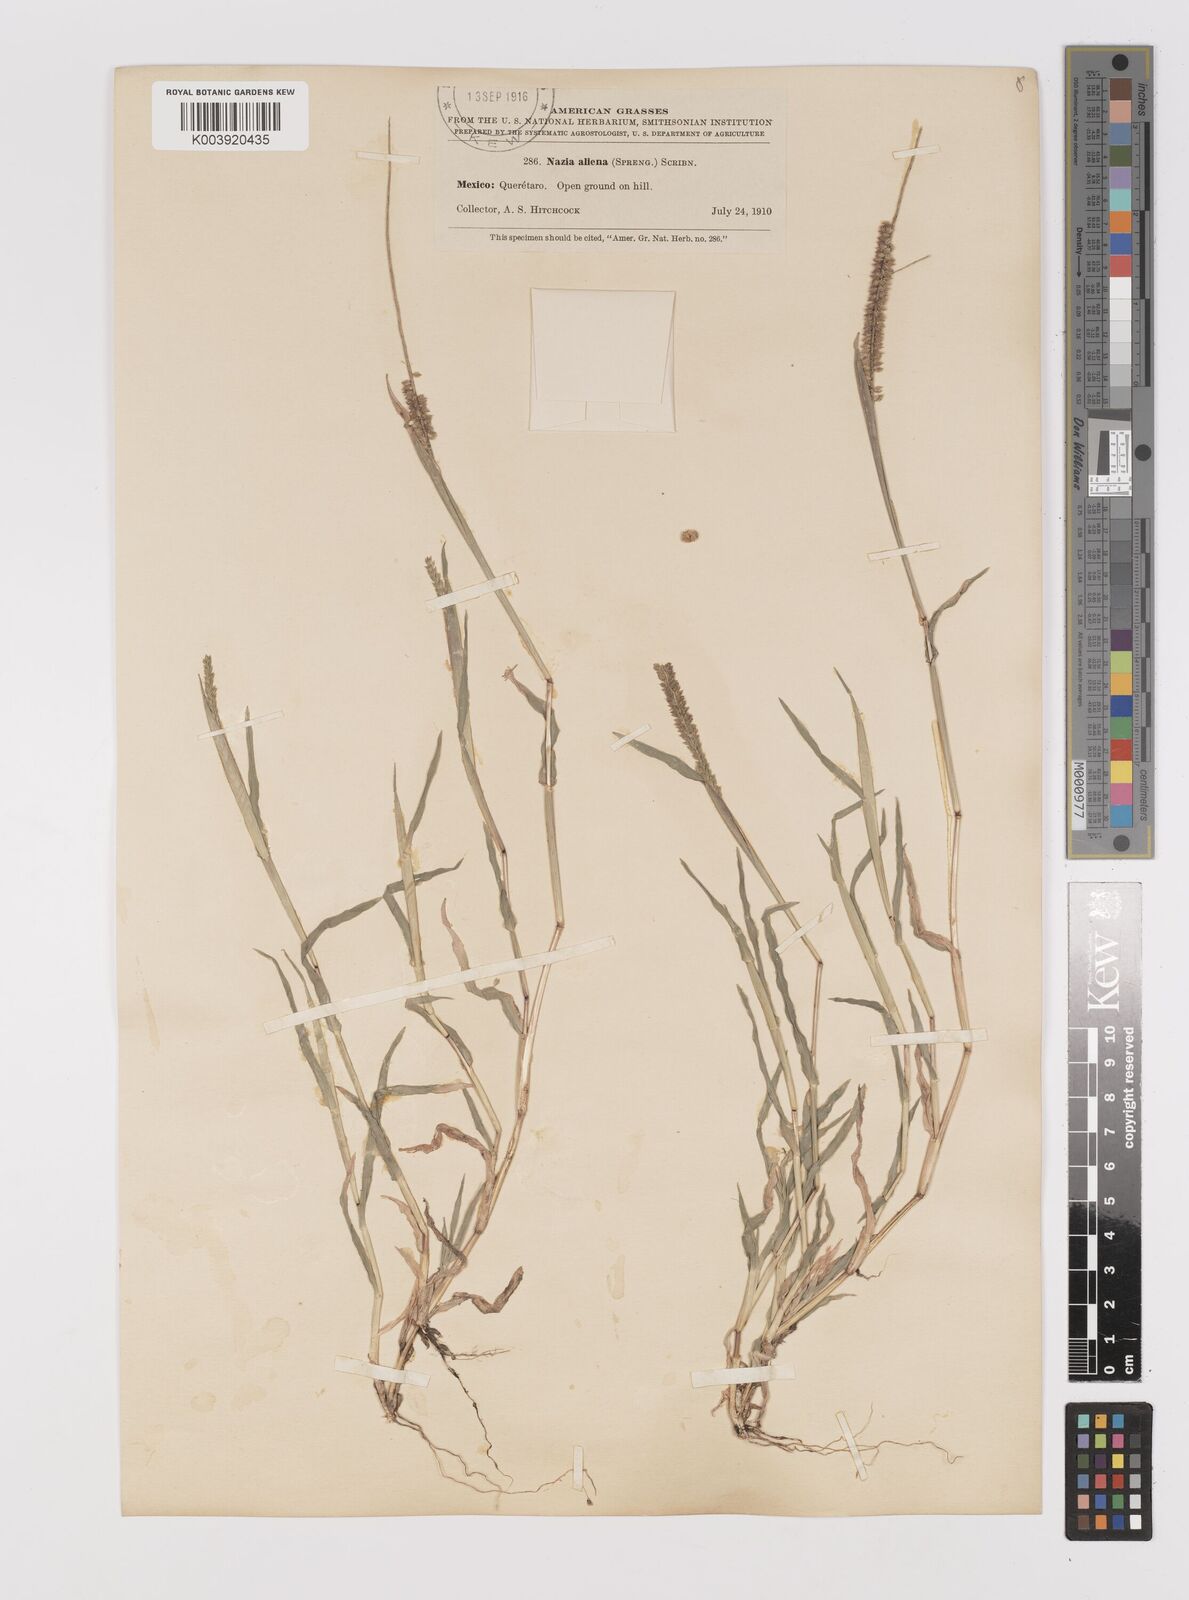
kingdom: Plantae
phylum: Tracheophyta
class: Liliopsida
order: Poales
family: Poaceae
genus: Tragus
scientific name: Tragus berteronianus
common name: African bur-grass
